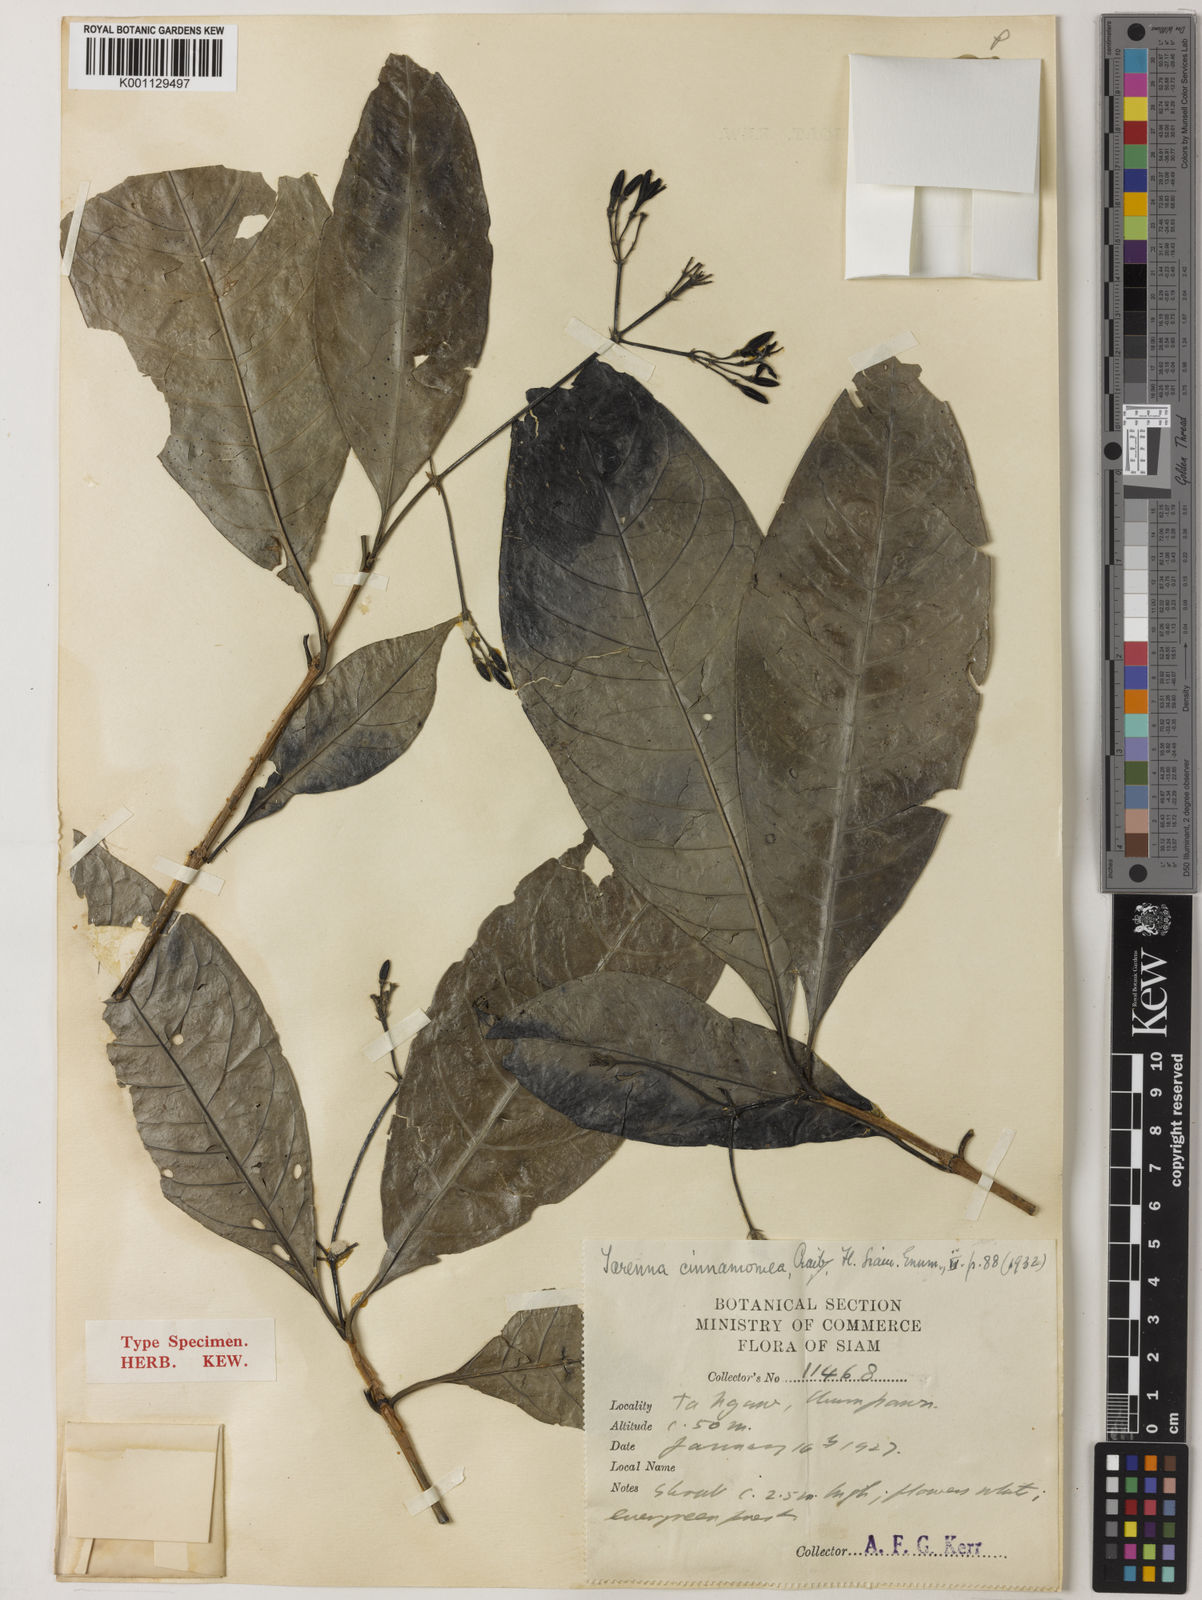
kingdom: Plantae
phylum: Tracheophyta
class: Magnoliopsida
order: Gentianales
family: Rubiaceae
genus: Tarenna
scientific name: Tarenna pulchra
